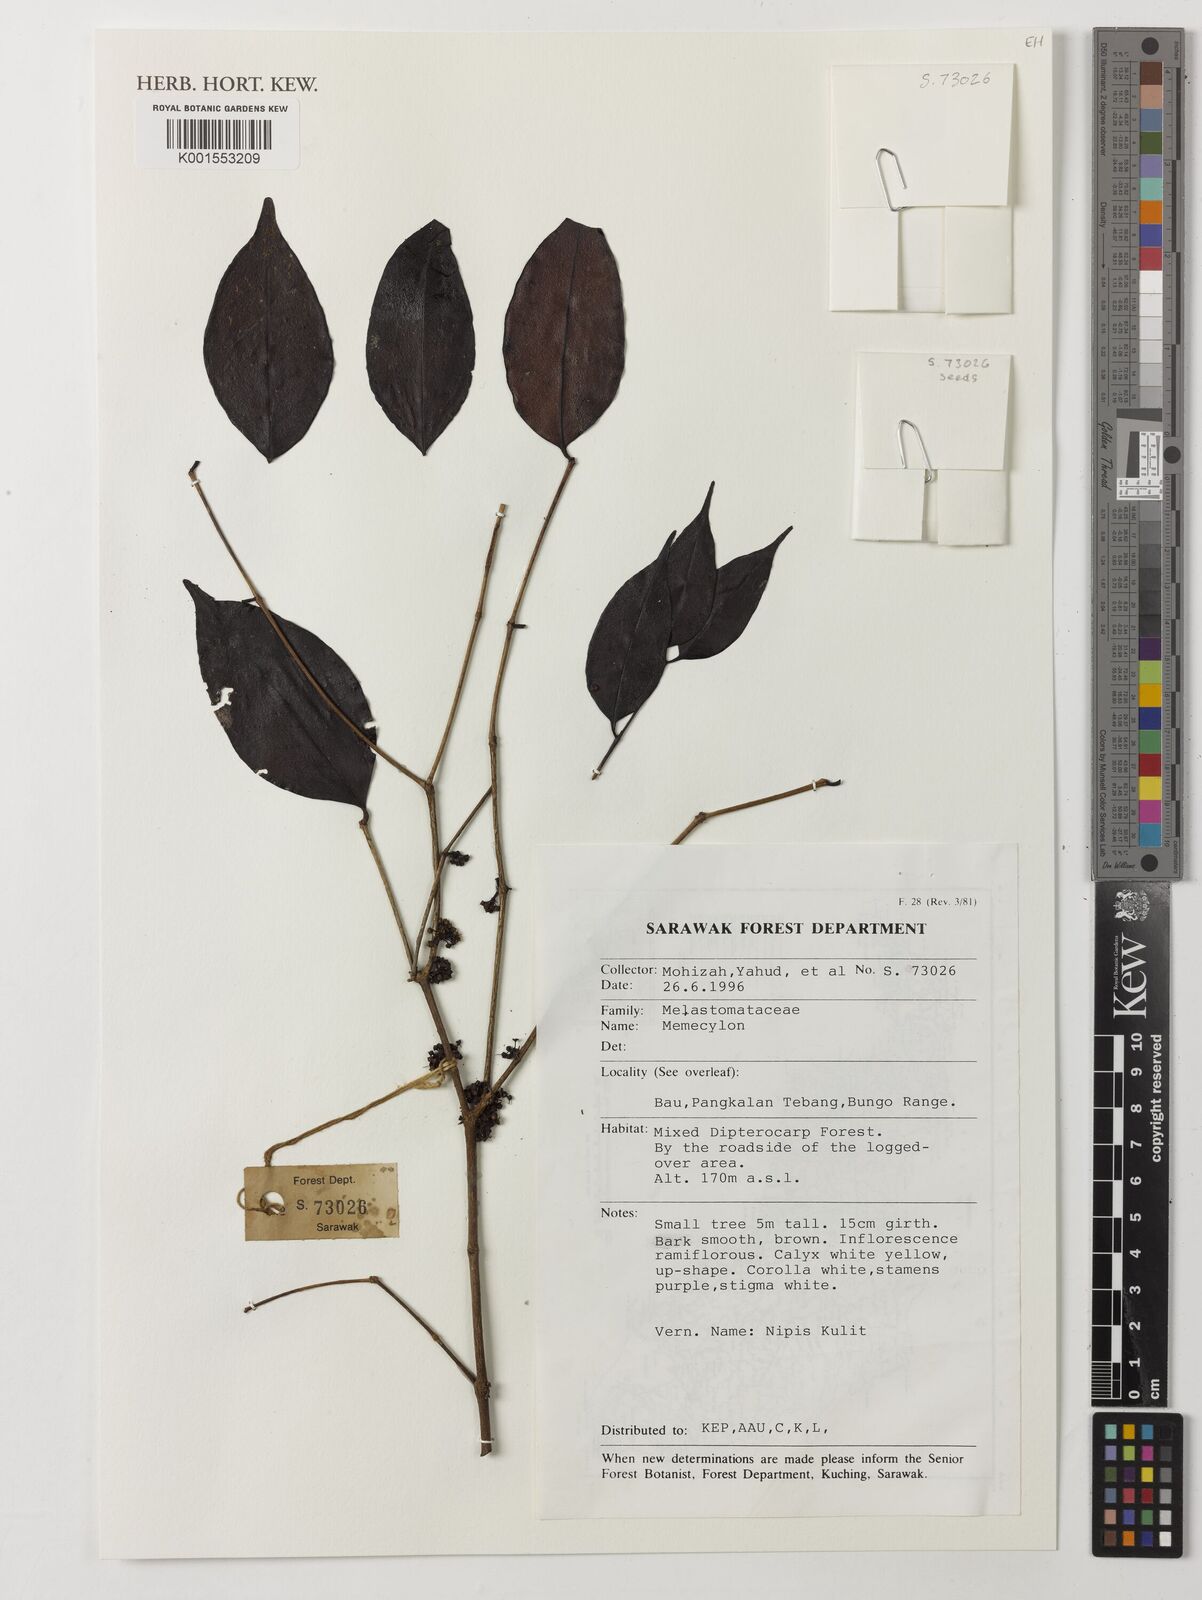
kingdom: Plantae
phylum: Tracheophyta
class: Magnoliopsida
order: Myrtales
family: Melastomataceae
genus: Memecylon
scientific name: Memecylon
